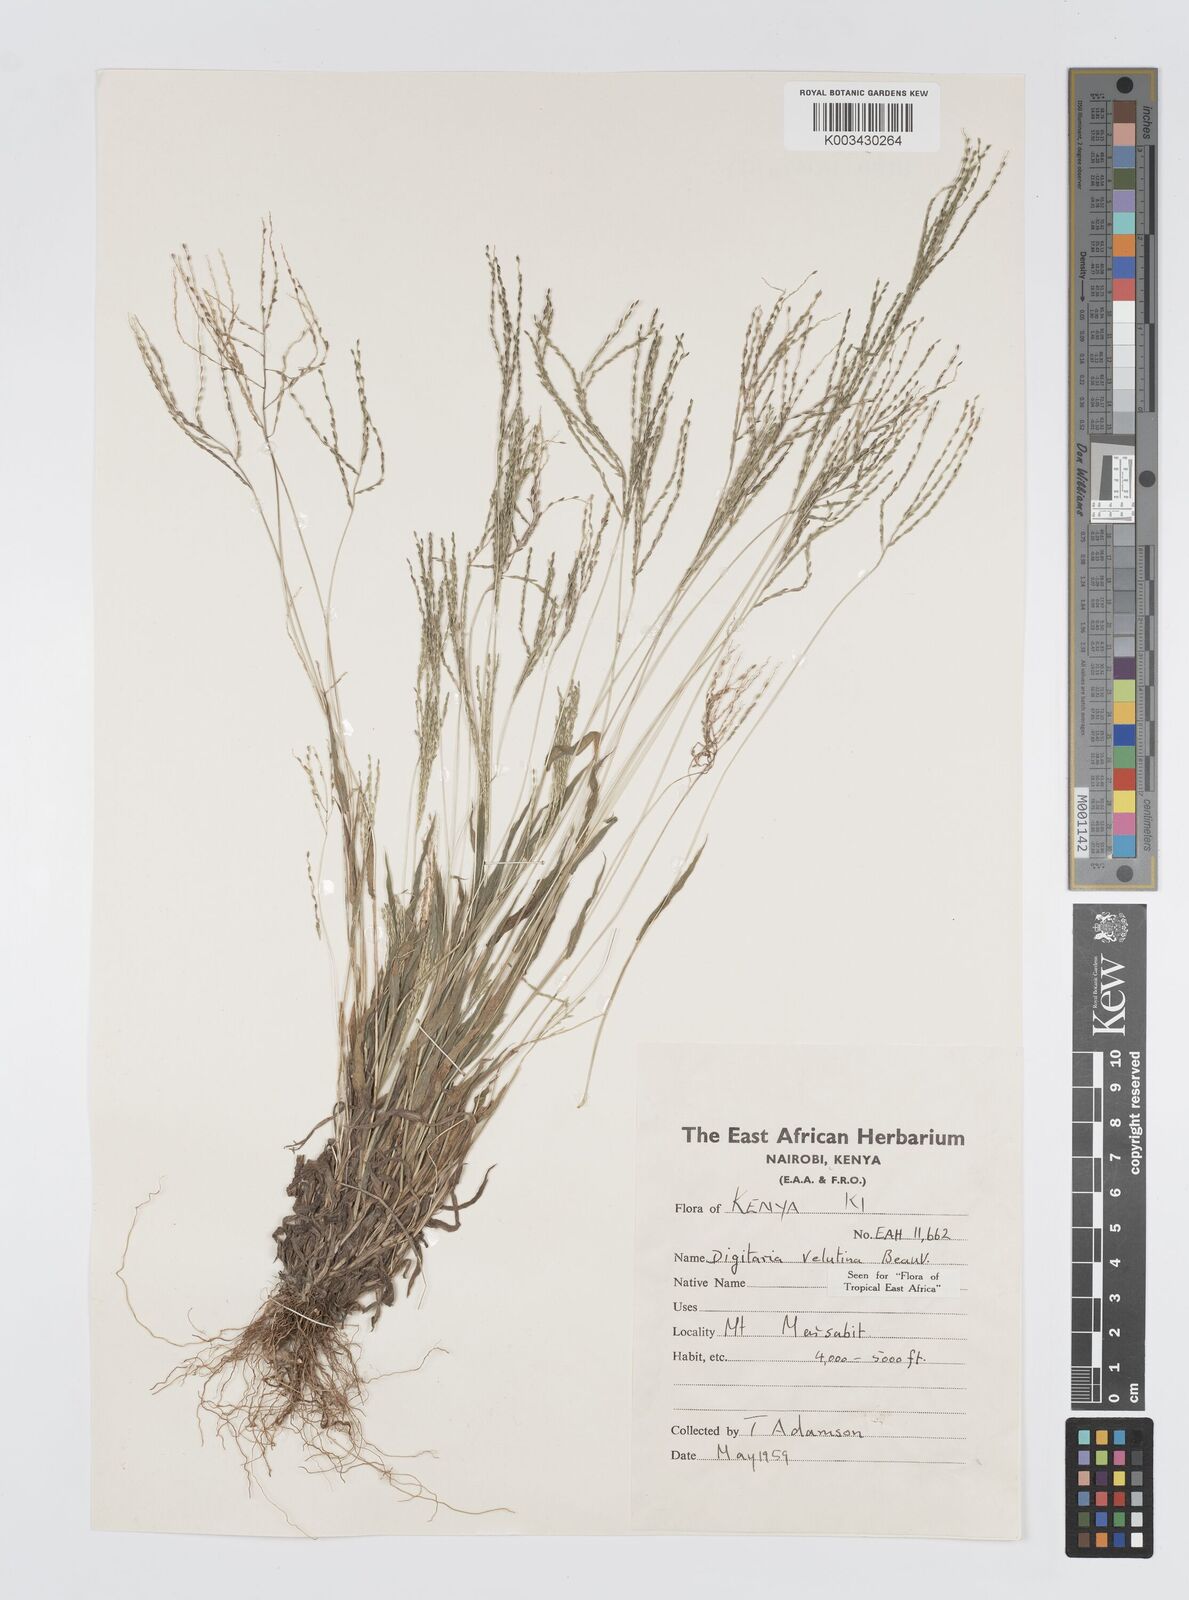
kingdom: Plantae
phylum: Tracheophyta
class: Liliopsida
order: Poales
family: Poaceae
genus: Digitaria
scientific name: Digitaria velutina
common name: Long-plume finger grass
